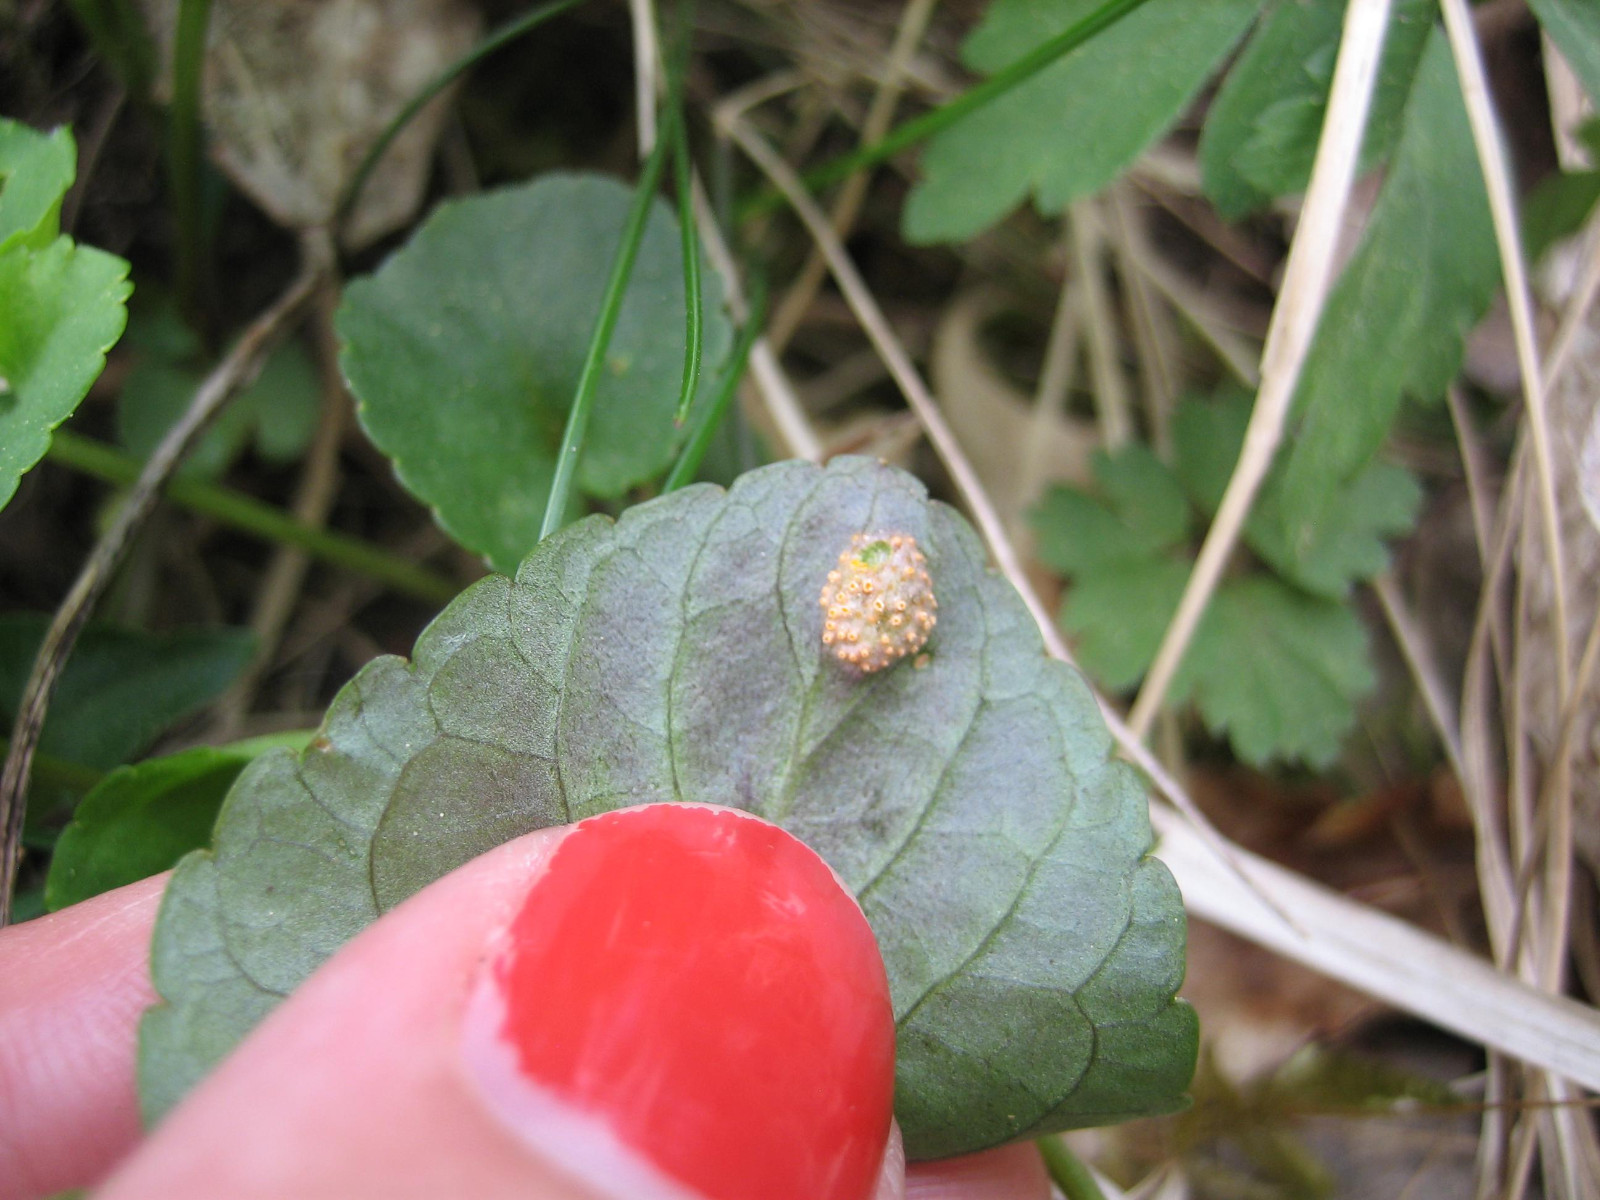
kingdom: Fungi
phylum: Basidiomycota
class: Pucciniomycetes
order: Pucciniales
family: Pucciniaceae
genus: Puccinia
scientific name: Puccinia violae
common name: viol-tvecellerust
